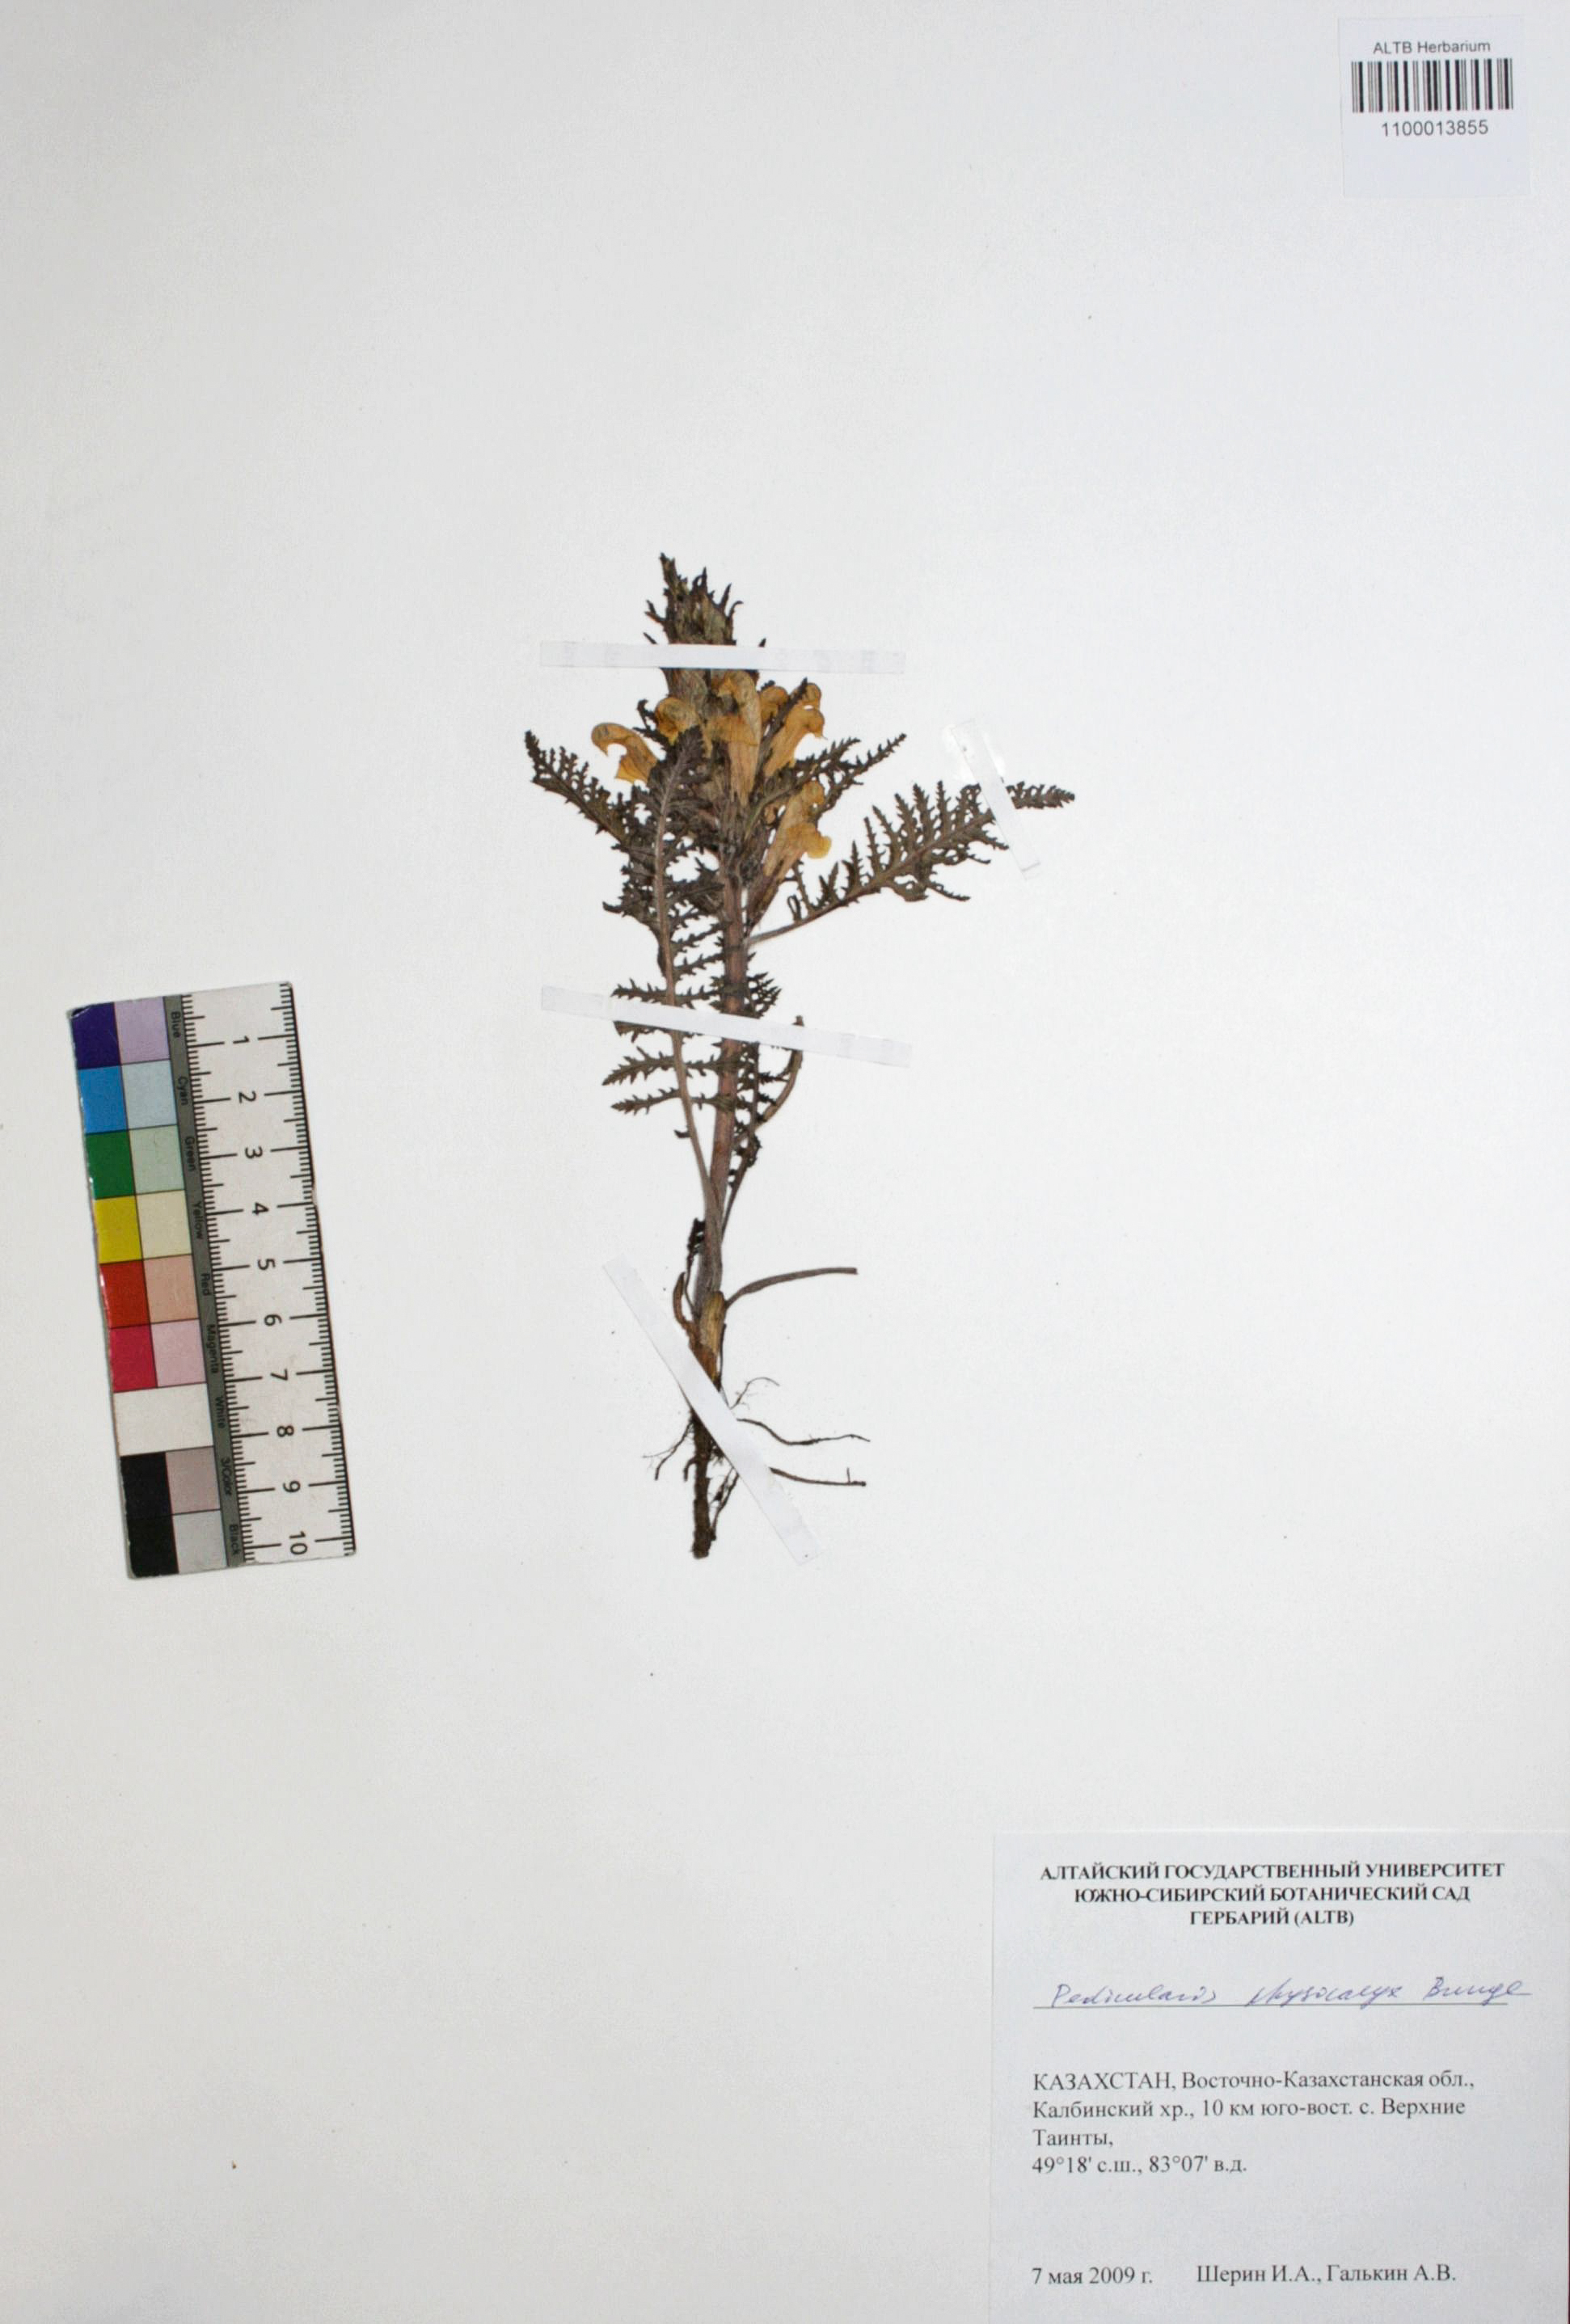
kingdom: Plantae
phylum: Tracheophyta
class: Magnoliopsida
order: Lamiales
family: Orobanchaceae
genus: Pedicularis
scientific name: Pedicularis physocalyx
